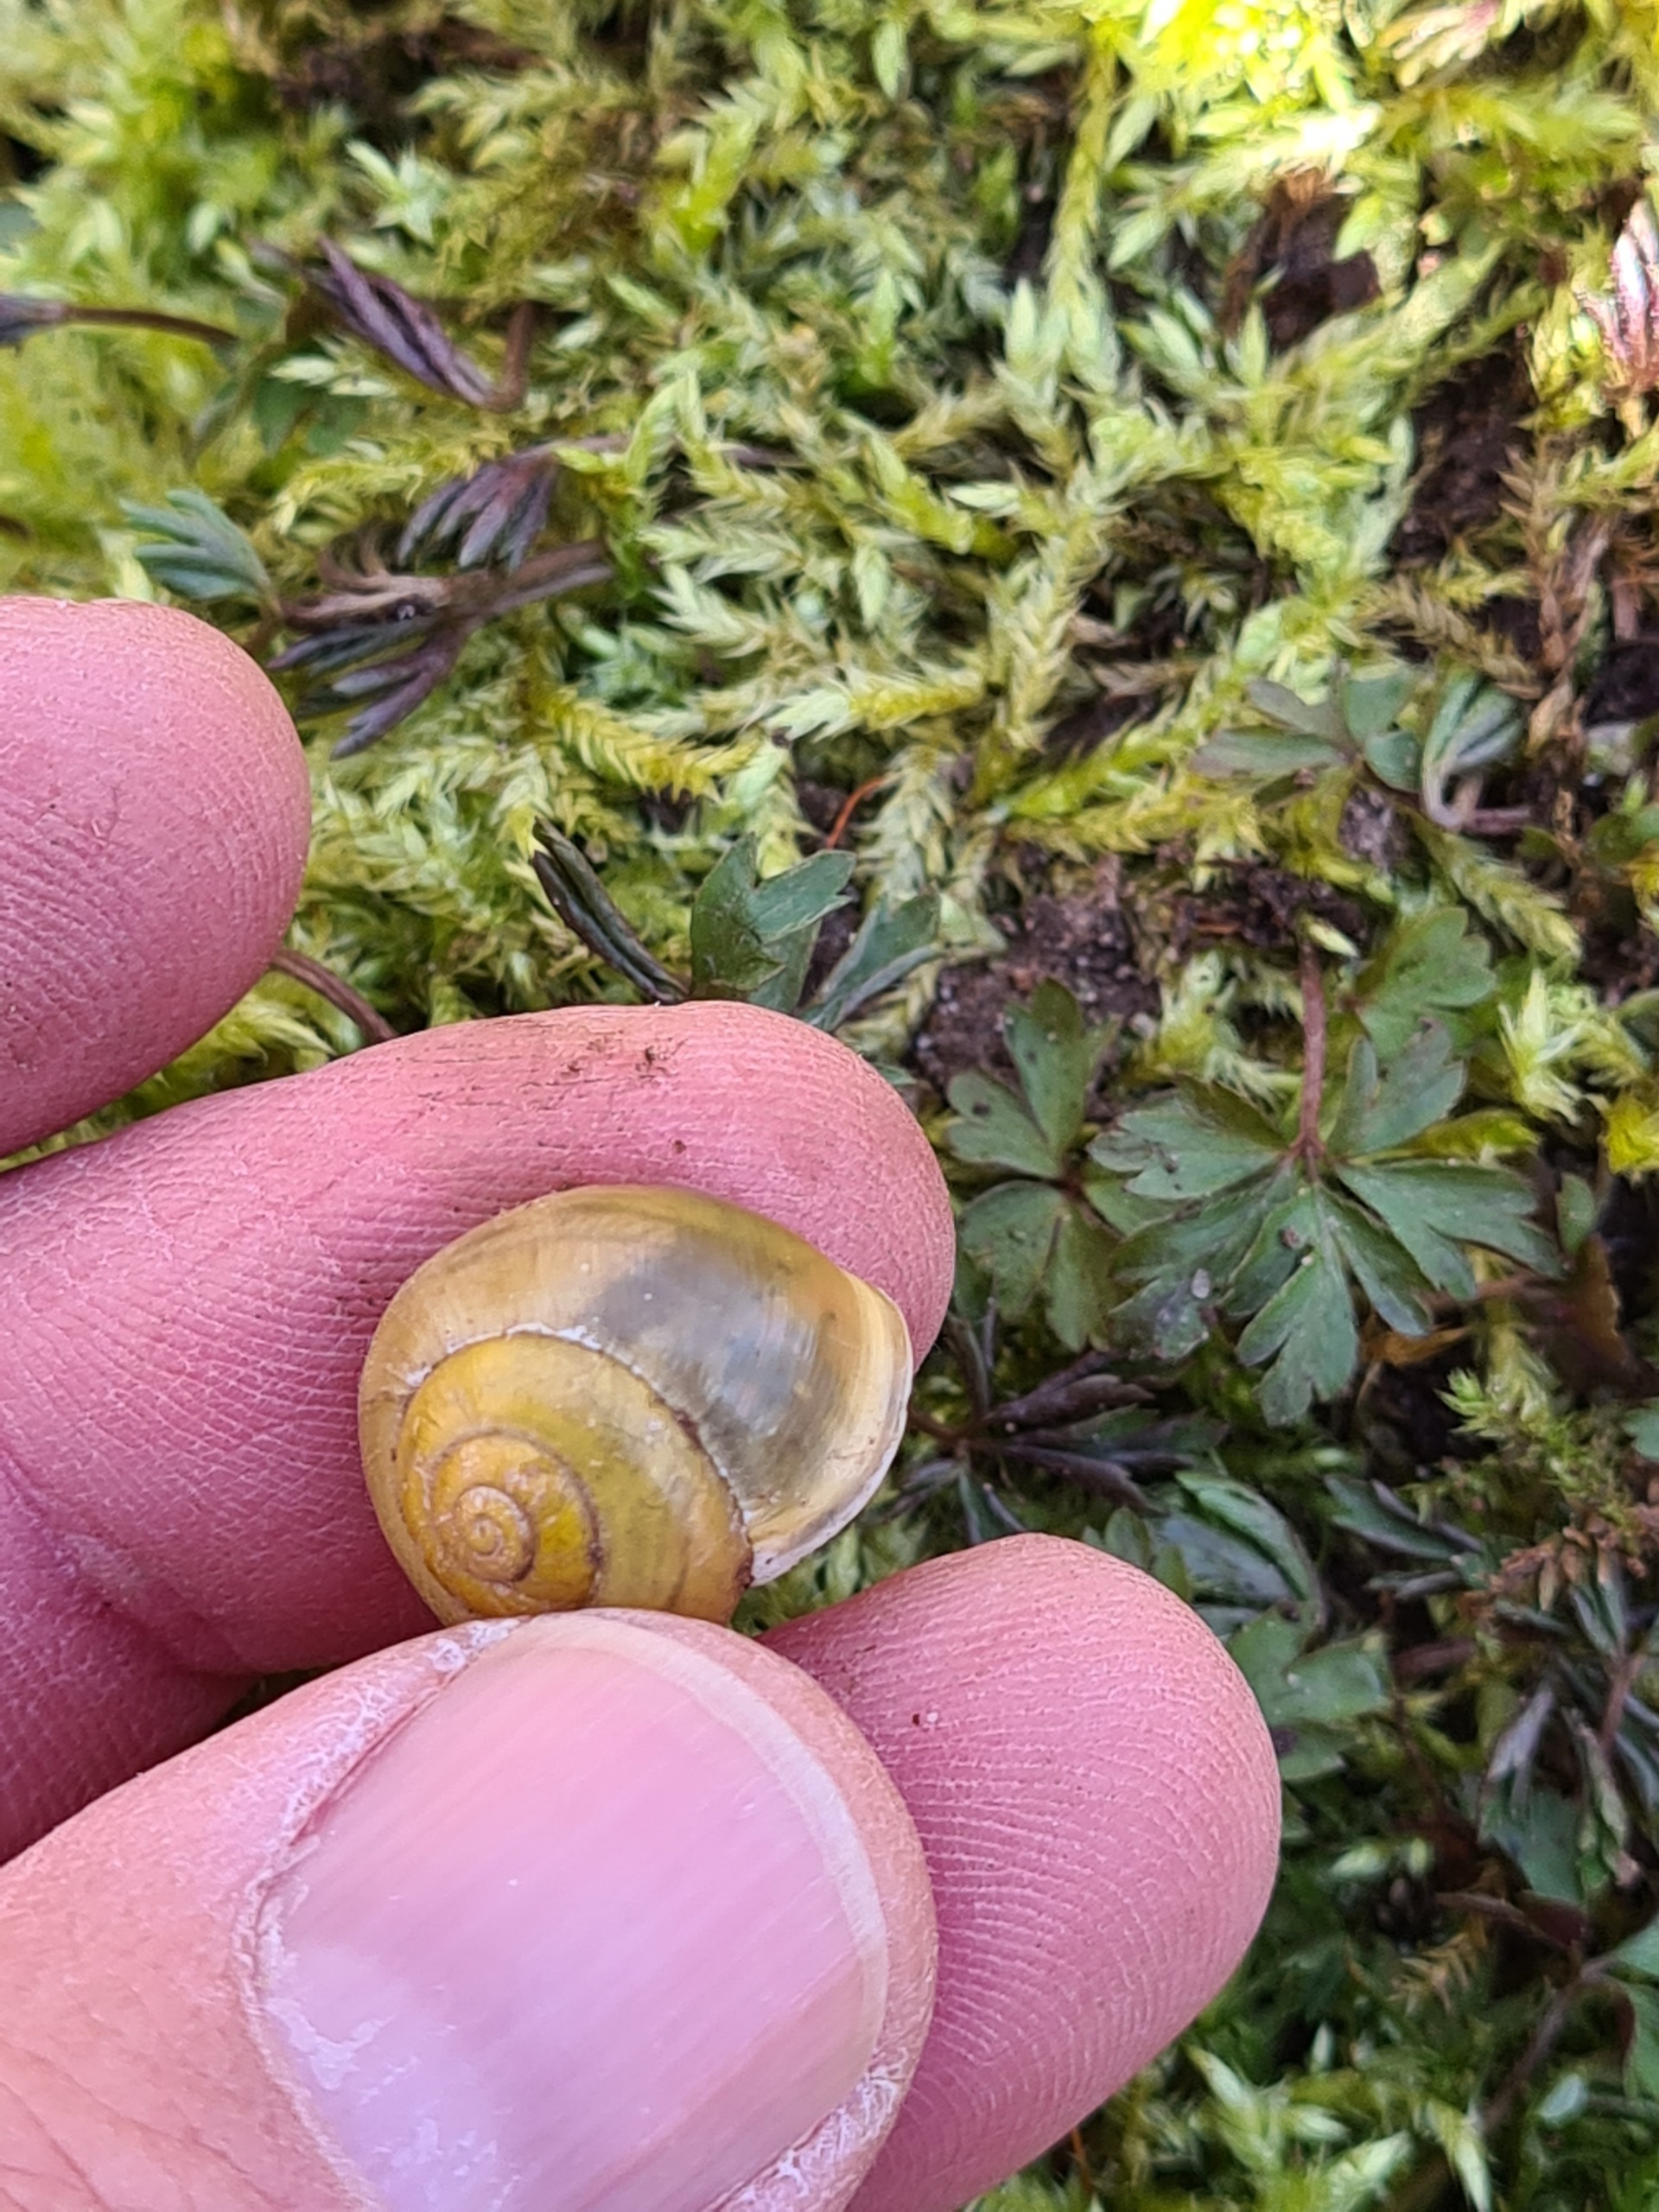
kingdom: Animalia
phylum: Mollusca
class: Gastropoda
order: Stylommatophora
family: Helicidae
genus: Cepaea
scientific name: Cepaea hortensis
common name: Havesnegl
